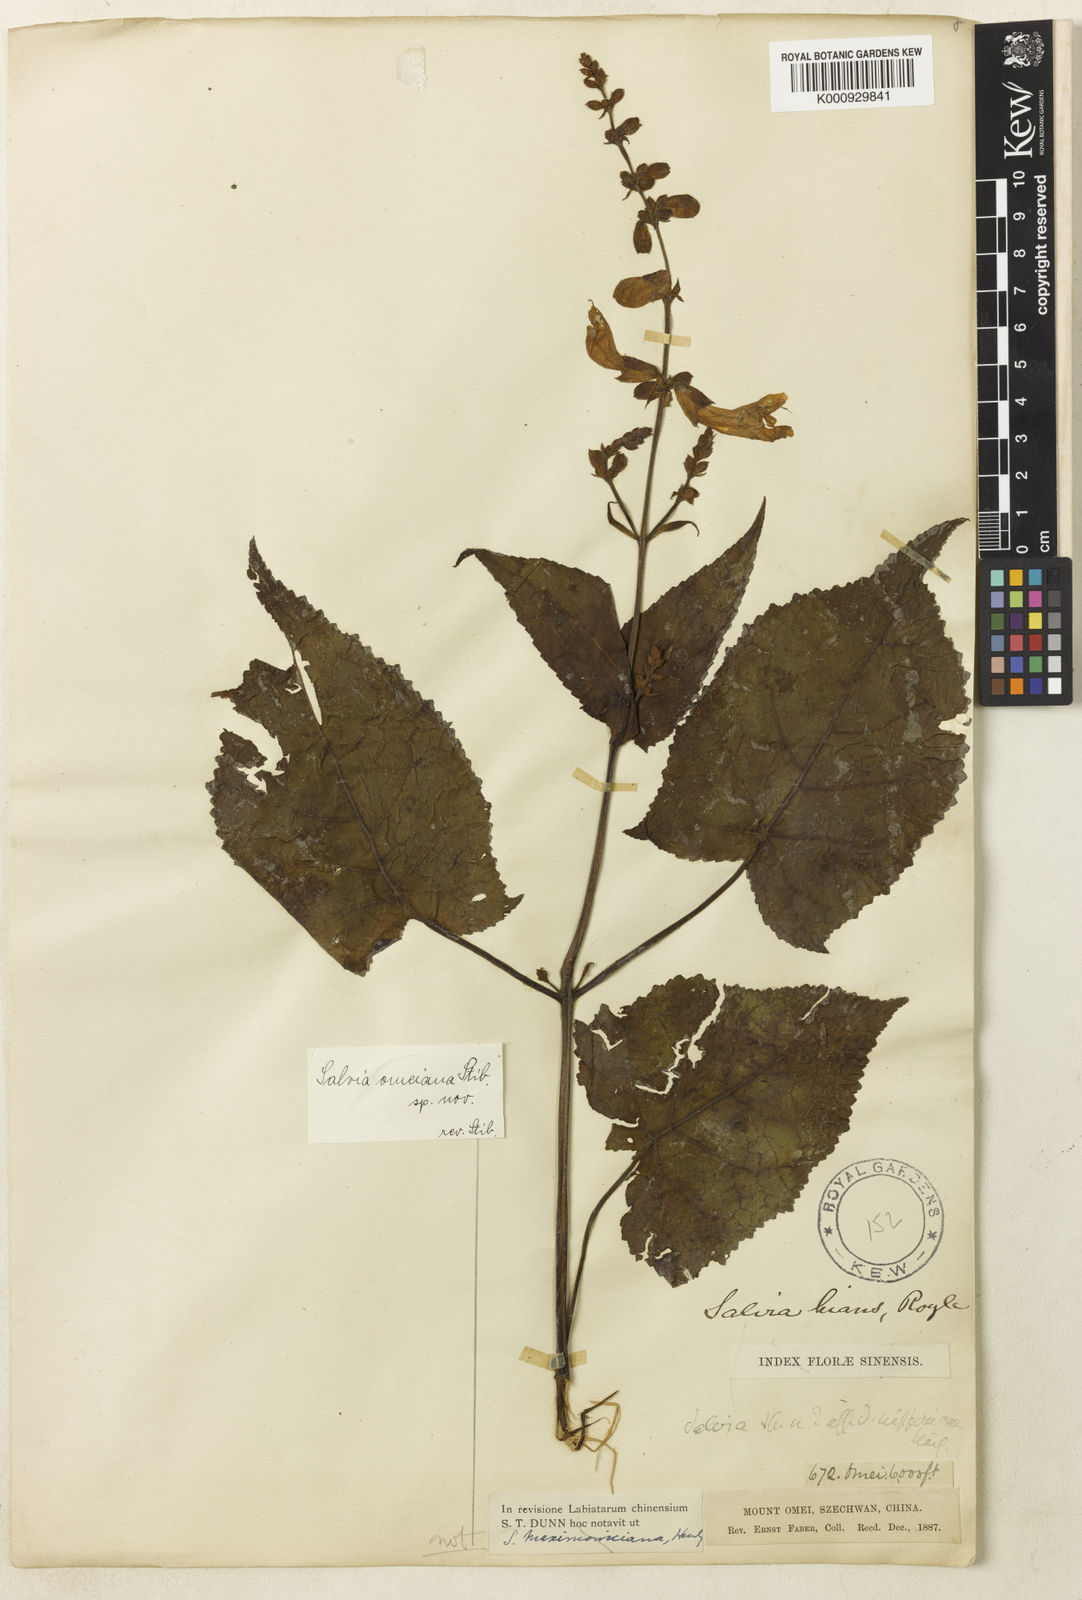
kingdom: Plantae
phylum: Tracheophyta
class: Magnoliopsida
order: Lamiales
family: Lamiaceae
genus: Salvia
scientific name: Salvia
